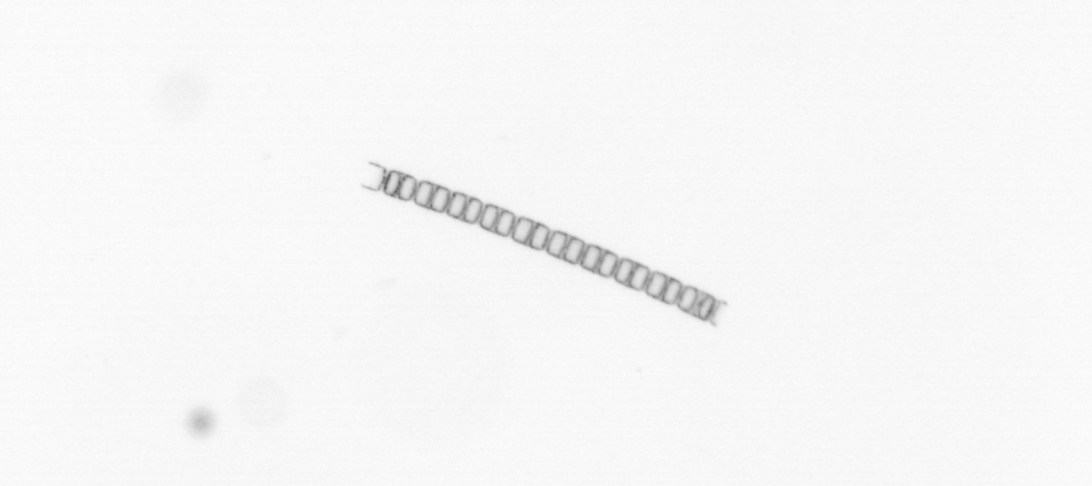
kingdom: Chromista
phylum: Ochrophyta
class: Bacillariophyceae
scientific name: Bacillariophyceae
